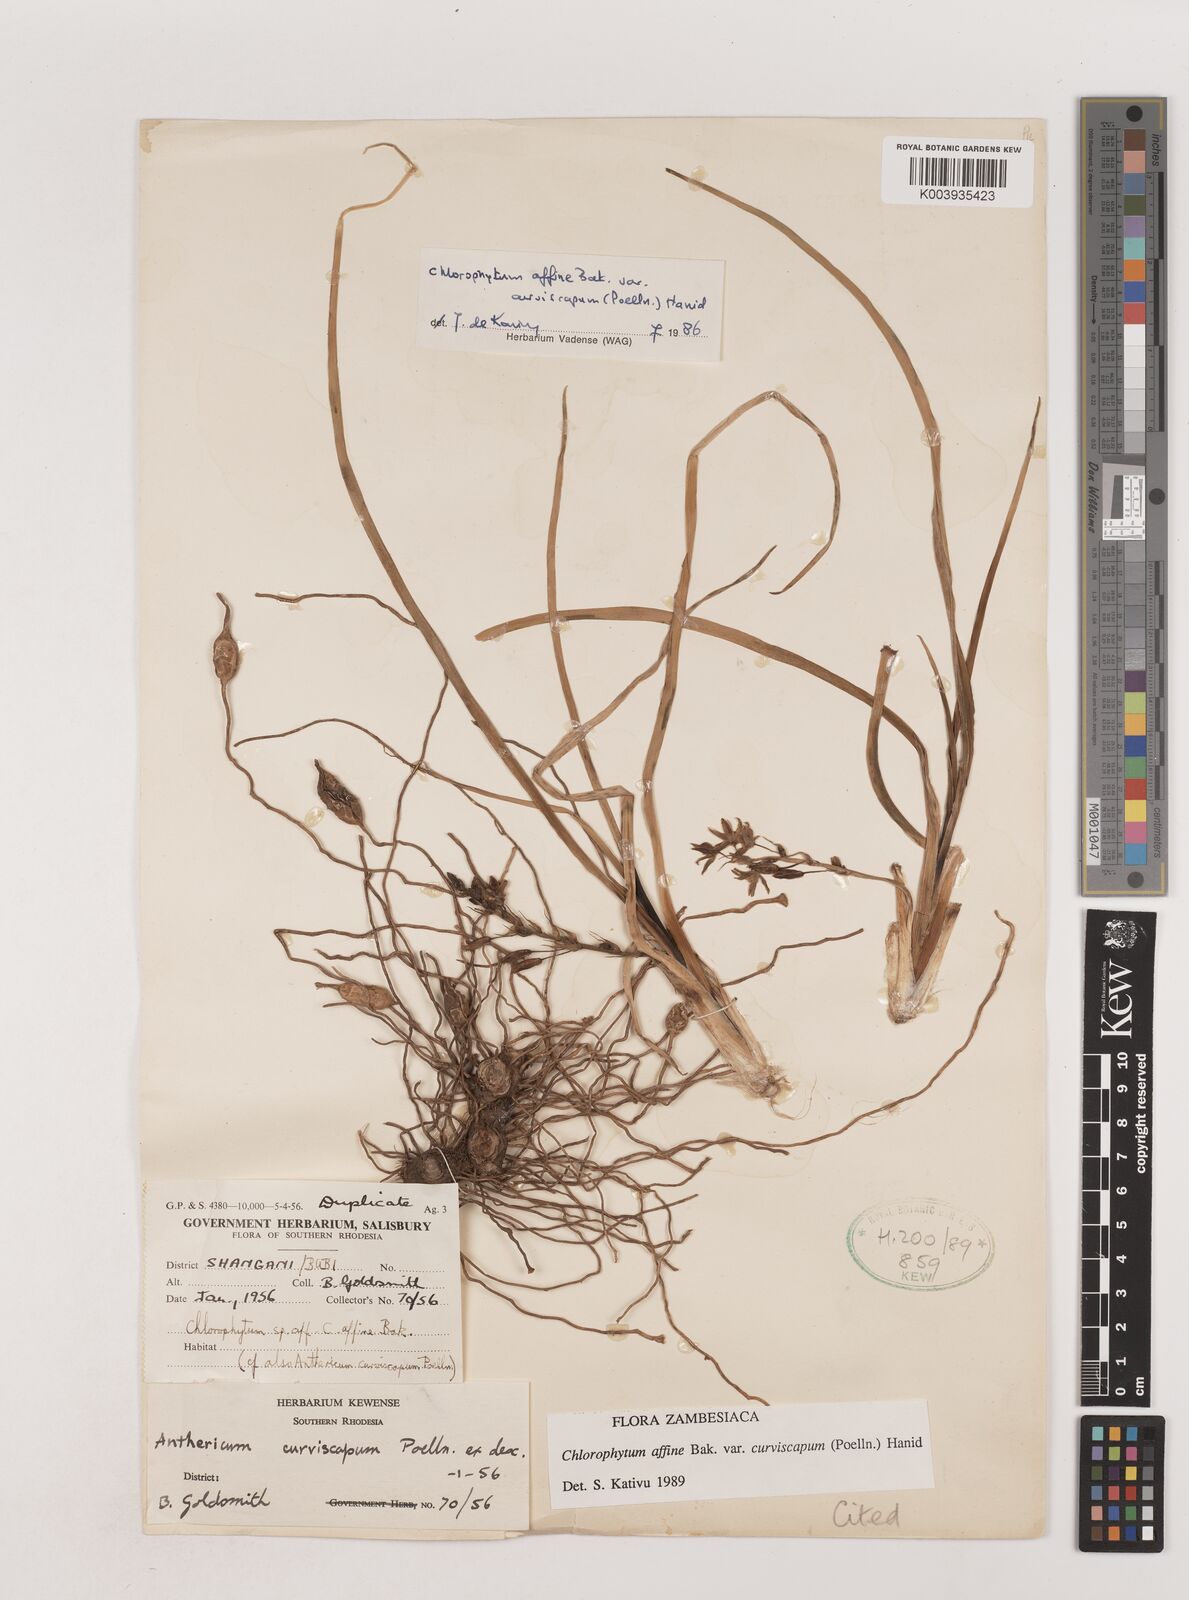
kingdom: Plantae
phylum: Tracheophyta
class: Liliopsida
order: Asparagales
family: Asparagaceae
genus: Chlorophytum
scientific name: Chlorophytum tordense
